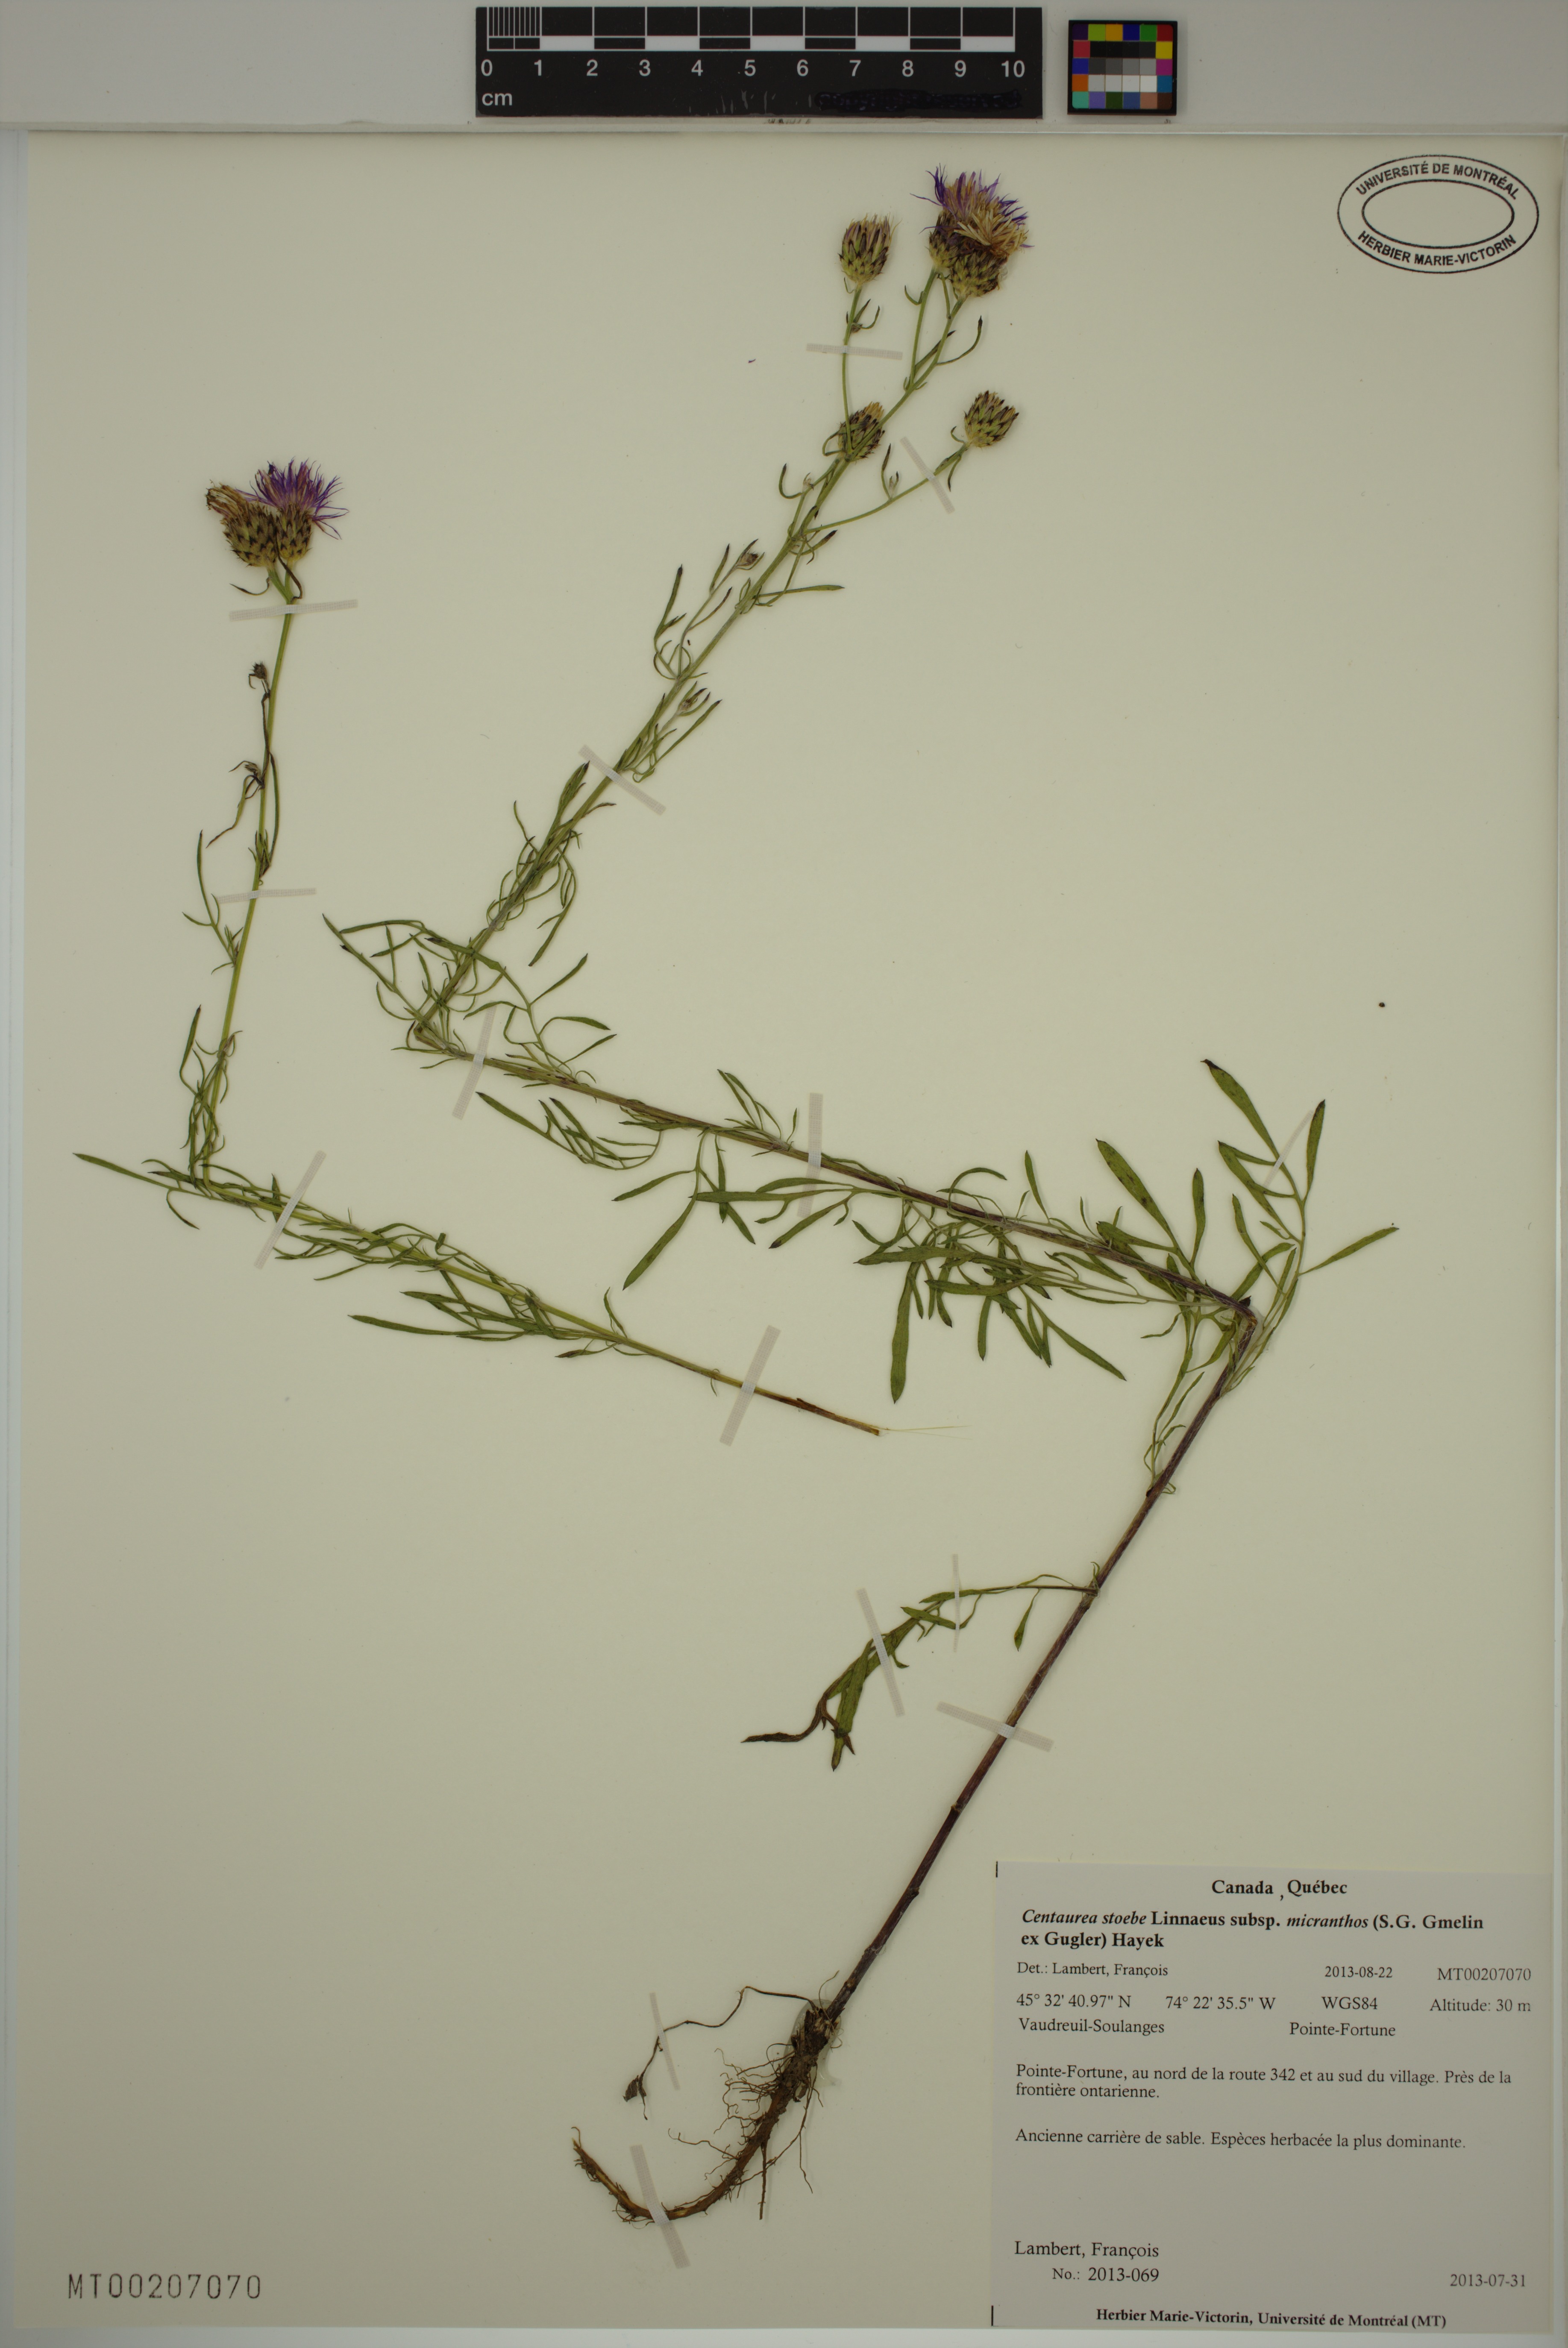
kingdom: Plantae
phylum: Tracheophyta
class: Magnoliopsida
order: Asterales
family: Asteraceae
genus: Centaurea
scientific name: Centaurea australis
